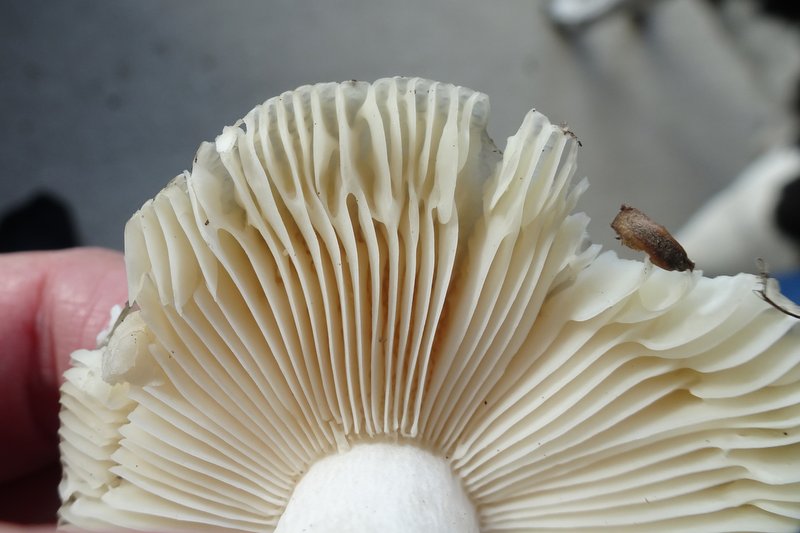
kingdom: Fungi
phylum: Basidiomycota
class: Agaricomycetes
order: Russulales
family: Russulaceae
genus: Russula
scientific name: Russula
